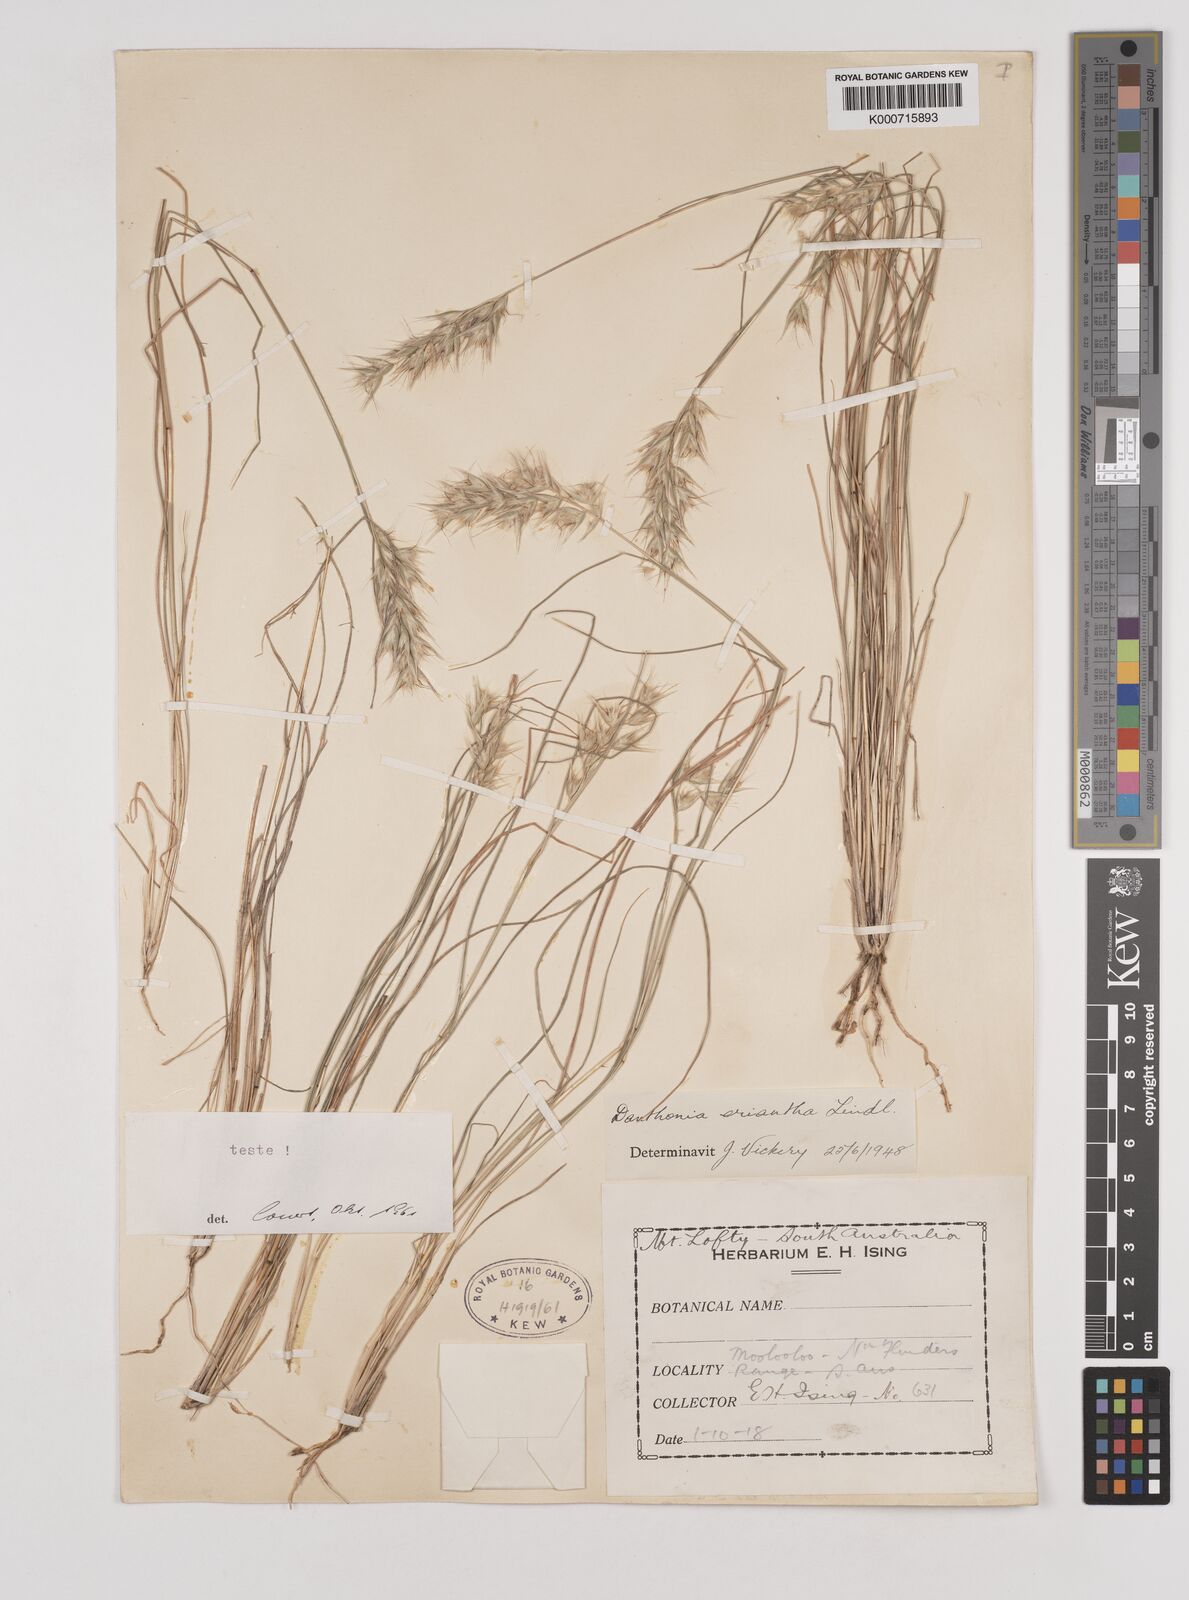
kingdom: Plantae
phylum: Tracheophyta
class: Liliopsida
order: Poales
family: Poaceae
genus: Rytidosperma
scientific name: Rytidosperma erianthum
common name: Hill wallaby grass
